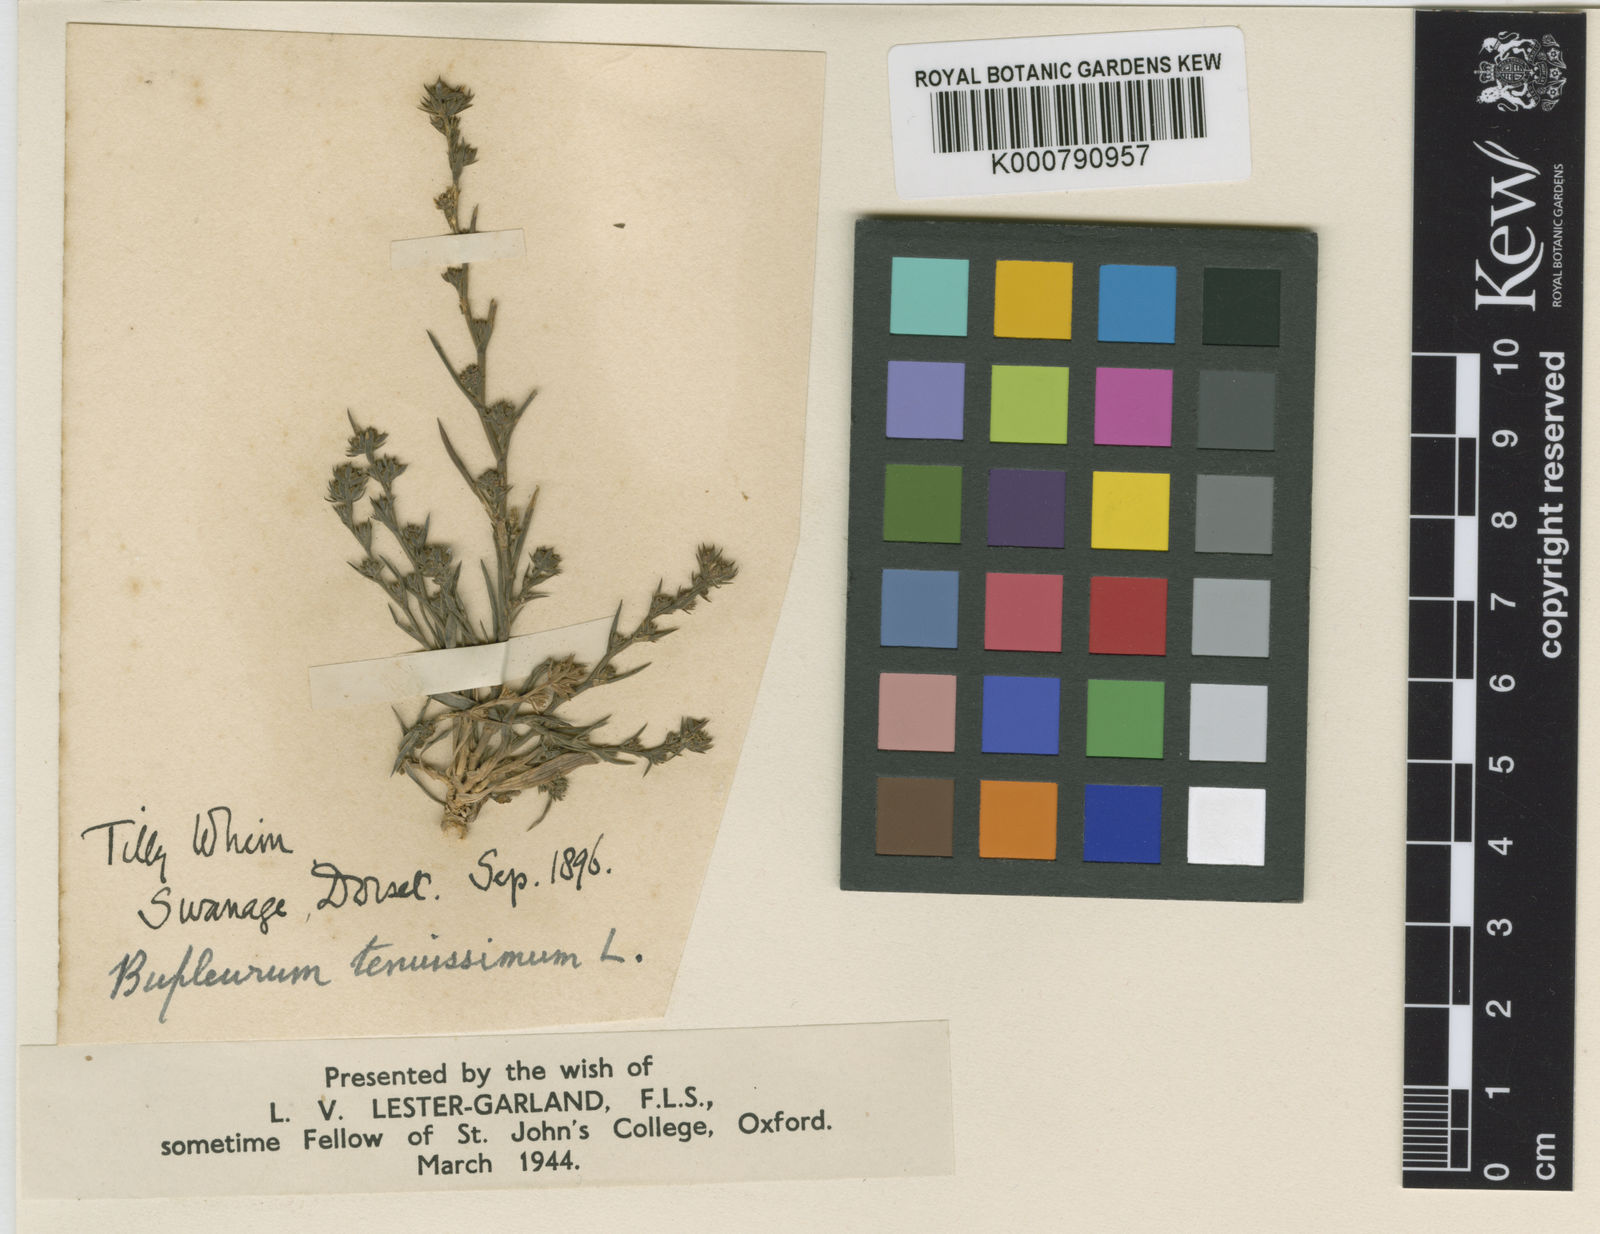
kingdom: Plantae
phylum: Tracheophyta
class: Magnoliopsida
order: Apiales
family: Apiaceae
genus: Bupleurum
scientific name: Bupleurum tenuissimum
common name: Slender hare's-ear
